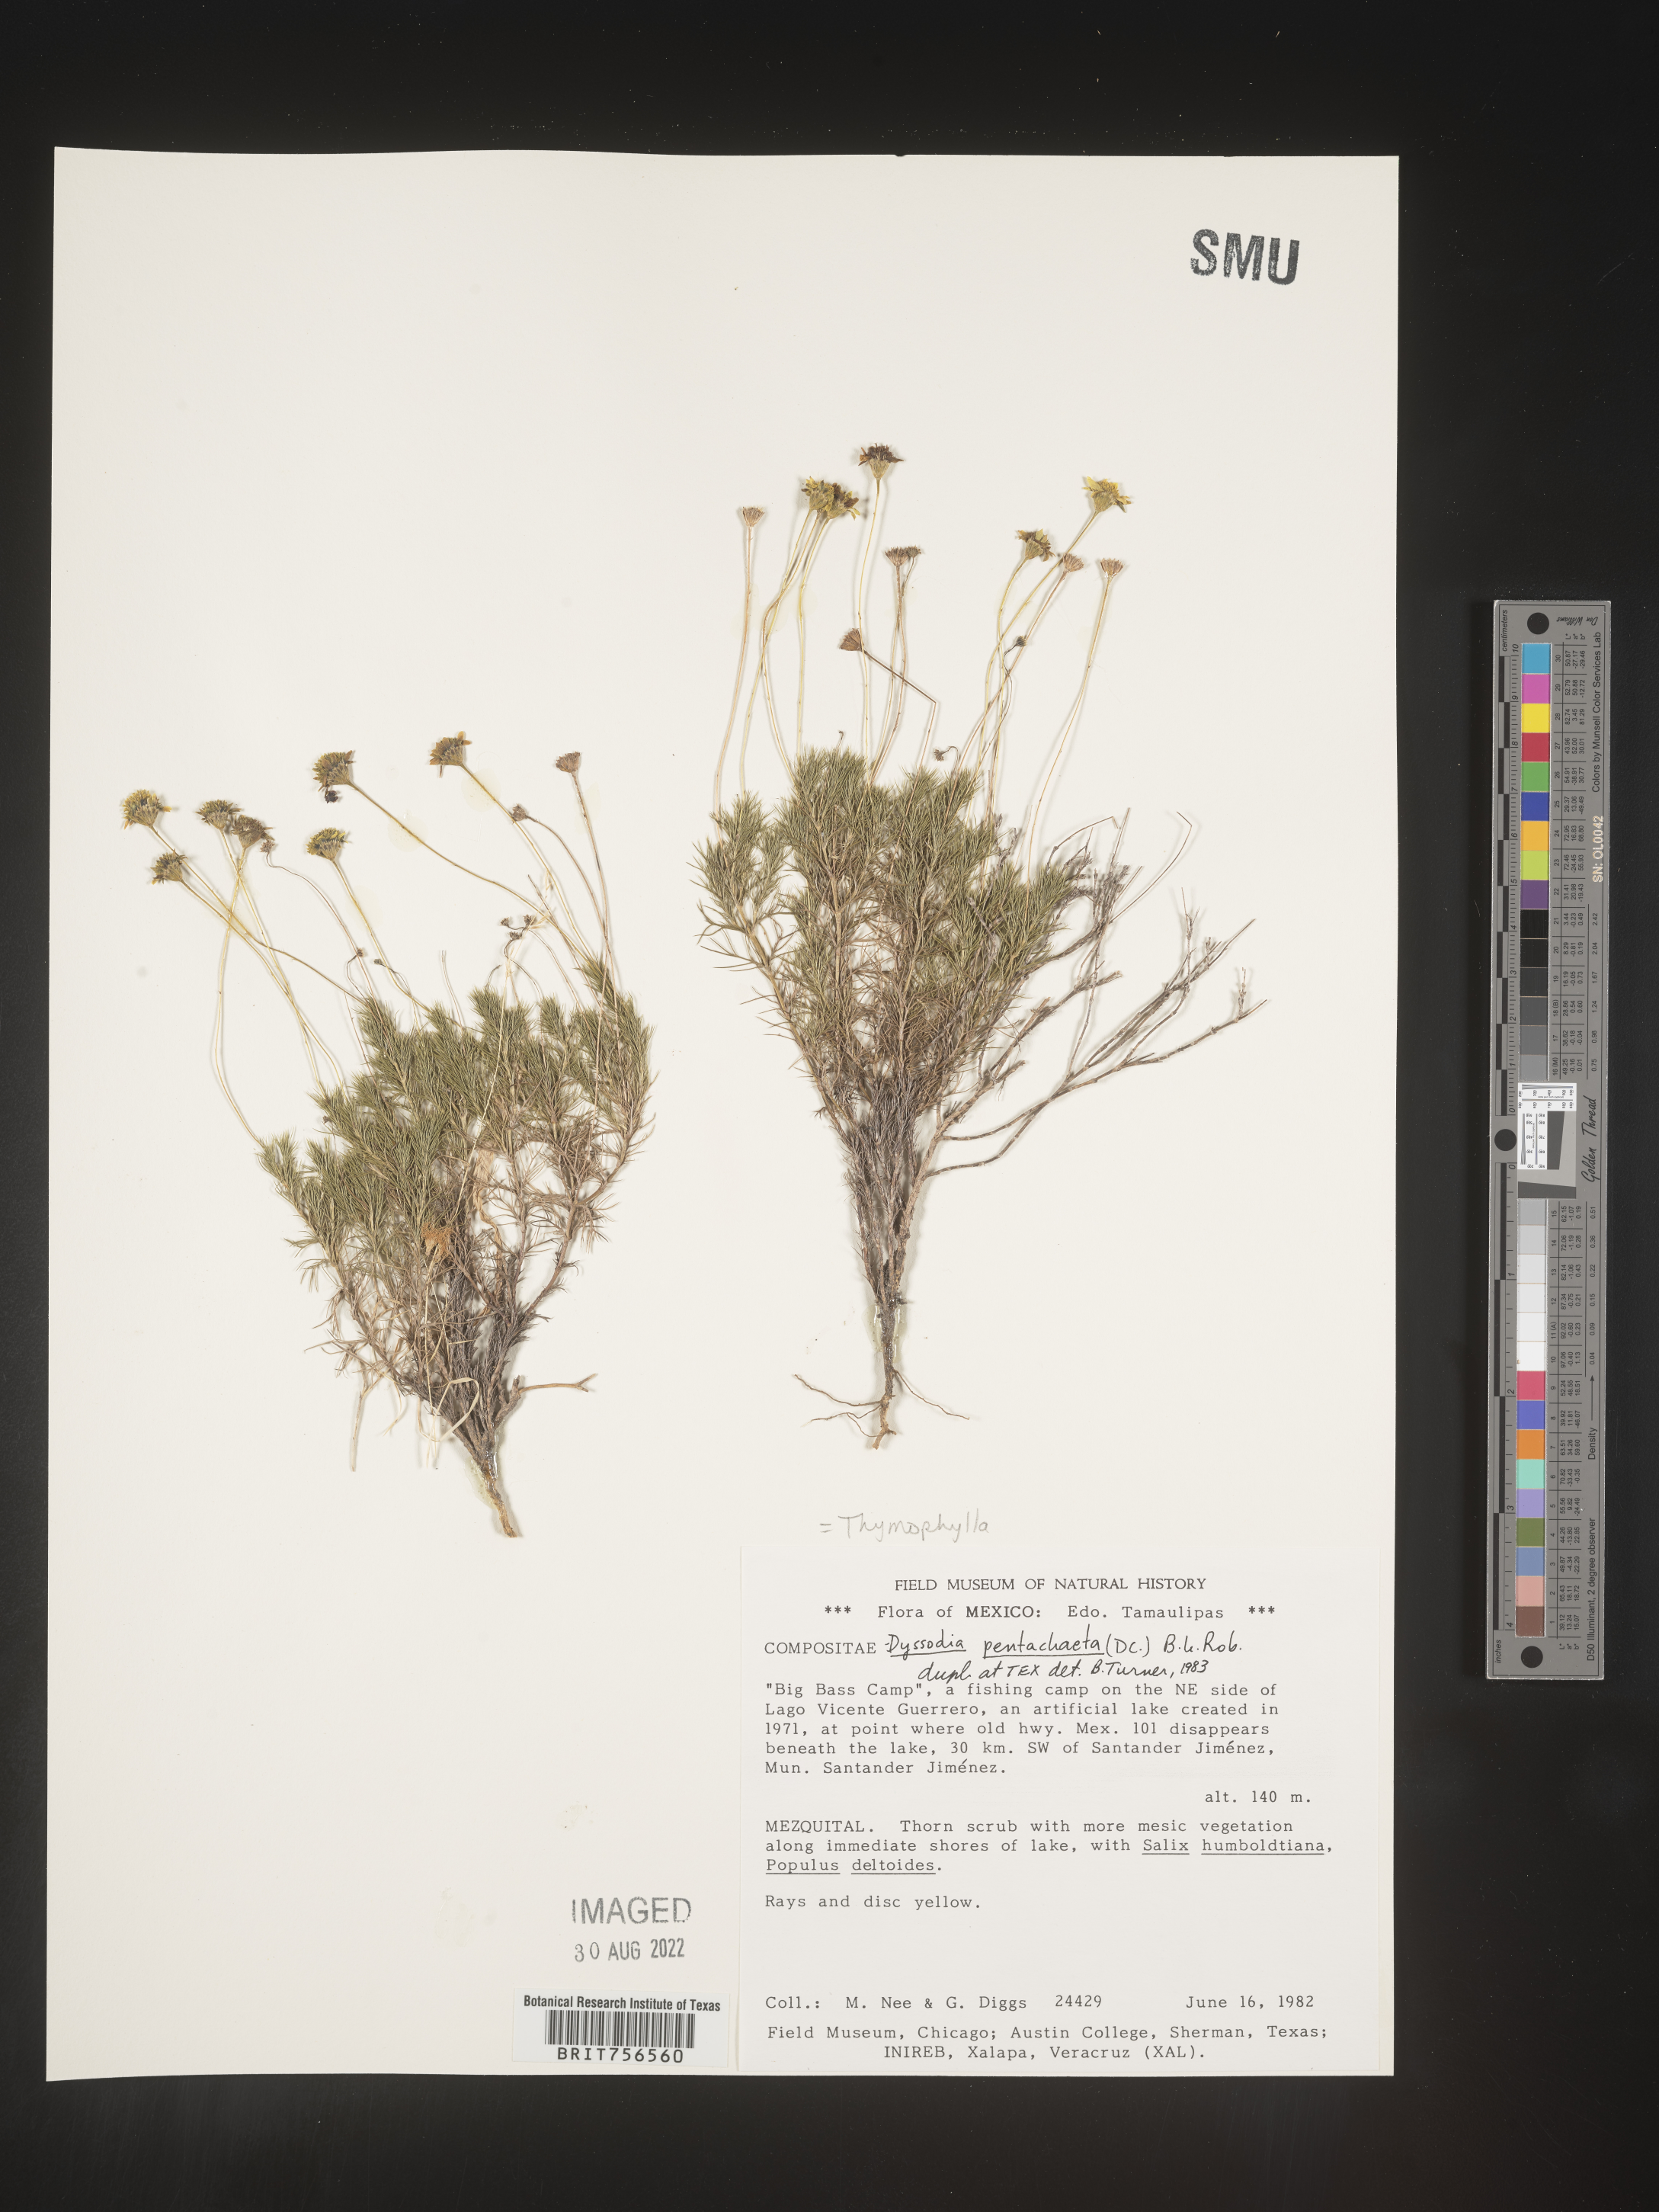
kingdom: Plantae
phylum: Tracheophyta
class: Magnoliopsida
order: Asterales
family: Asteraceae
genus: Thymophylla
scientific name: Thymophylla pentachaeta
